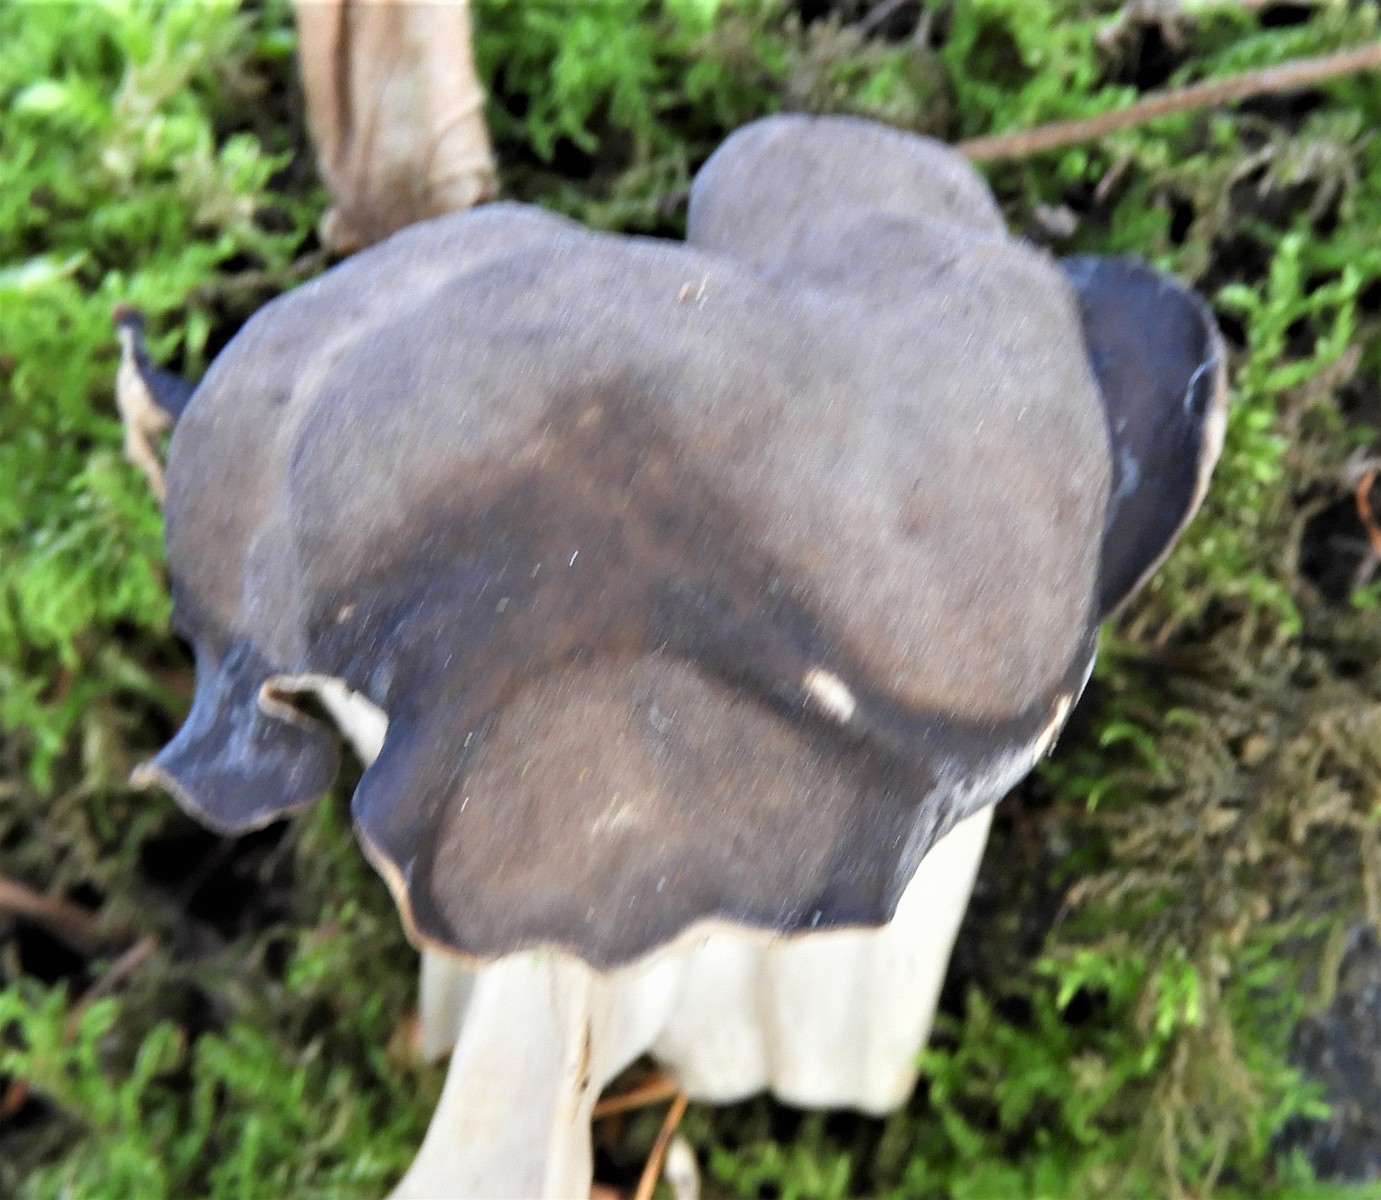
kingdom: Fungi
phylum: Ascomycota
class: Pezizomycetes
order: Pezizales
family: Helvellaceae
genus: Helvella
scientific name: Helvella lacunosa
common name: grubet foldhat
